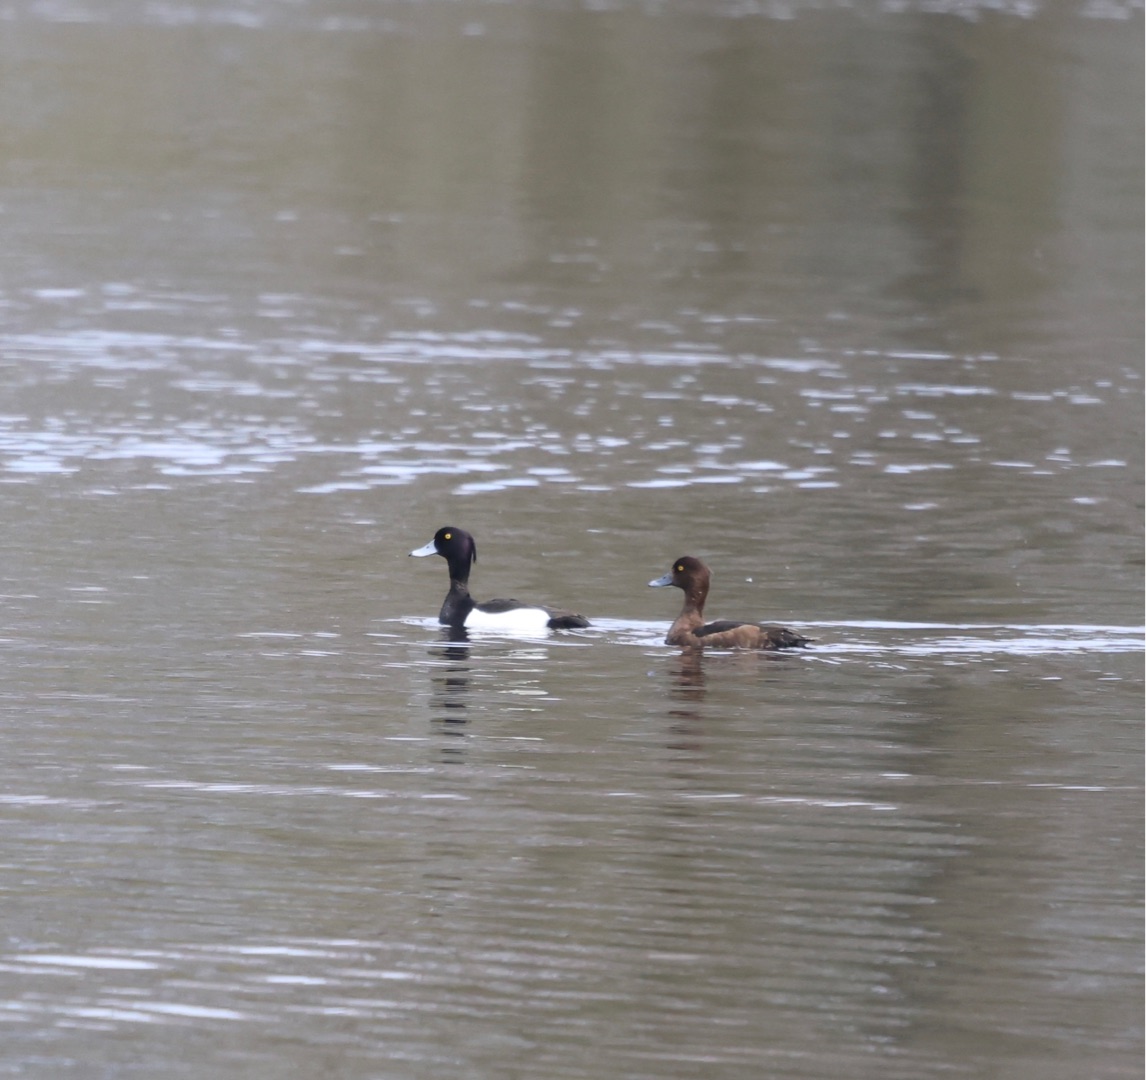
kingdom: Animalia
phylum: Chordata
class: Aves
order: Anseriformes
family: Anatidae
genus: Aythya
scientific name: Aythya fuligula
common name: Troldand
